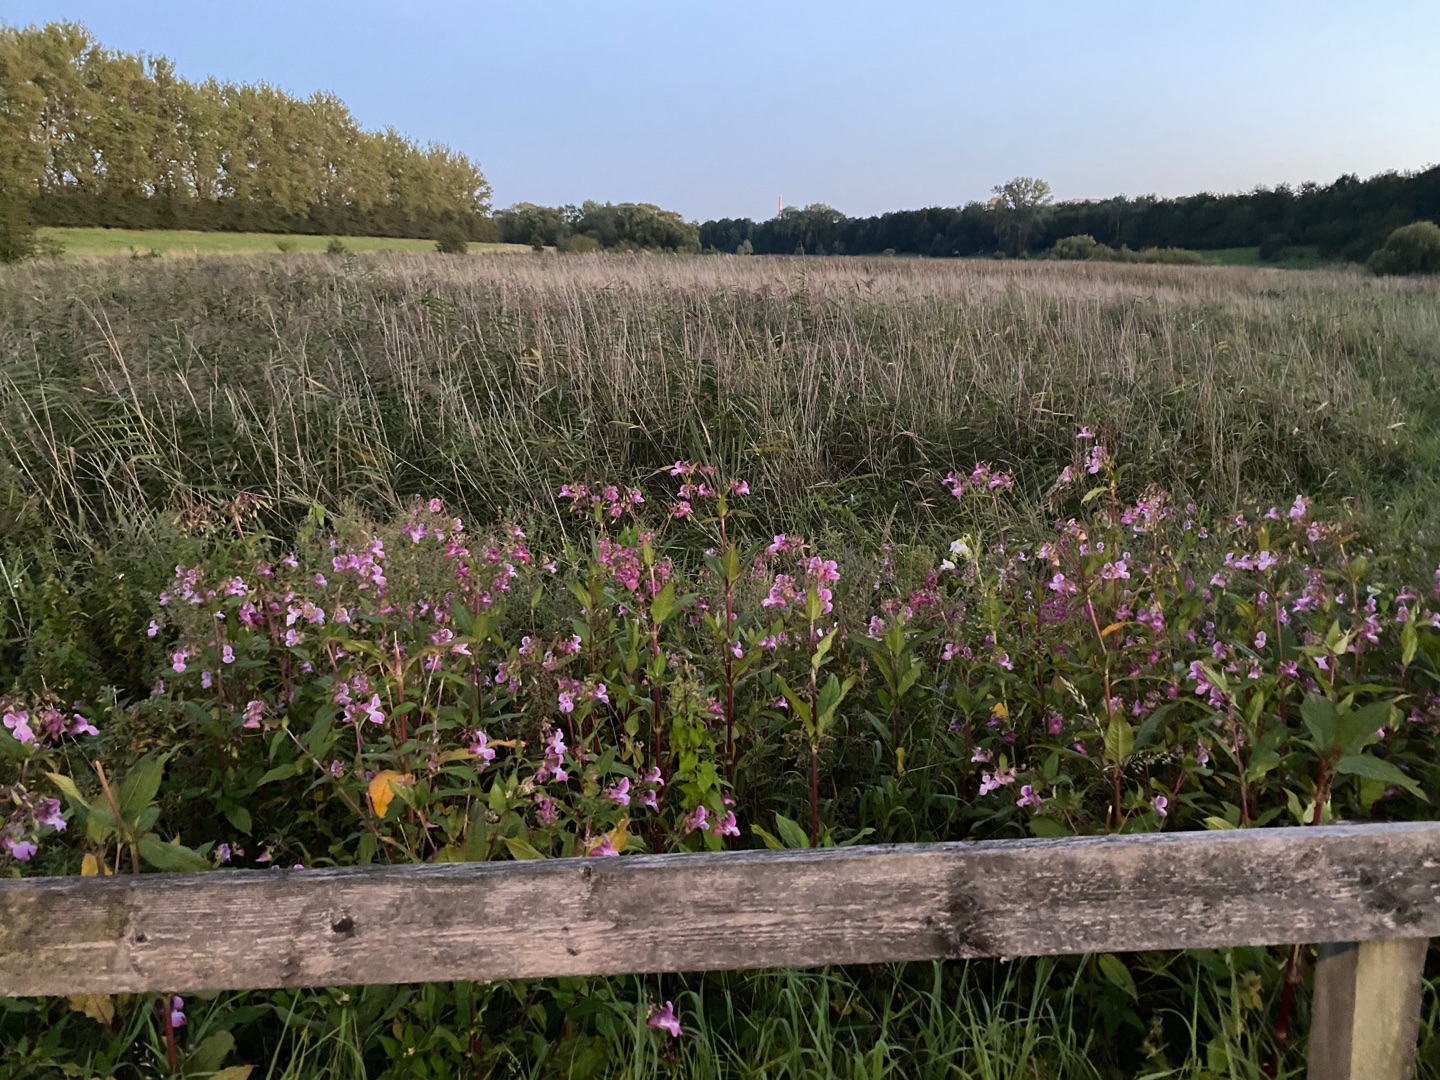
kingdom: Plantae
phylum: Tracheophyta
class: Magnoliopsida
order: Ericales
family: Balsaminaceae
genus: Impatiens
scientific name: Impatiens glandulifera
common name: Kæmpe-balsamin
